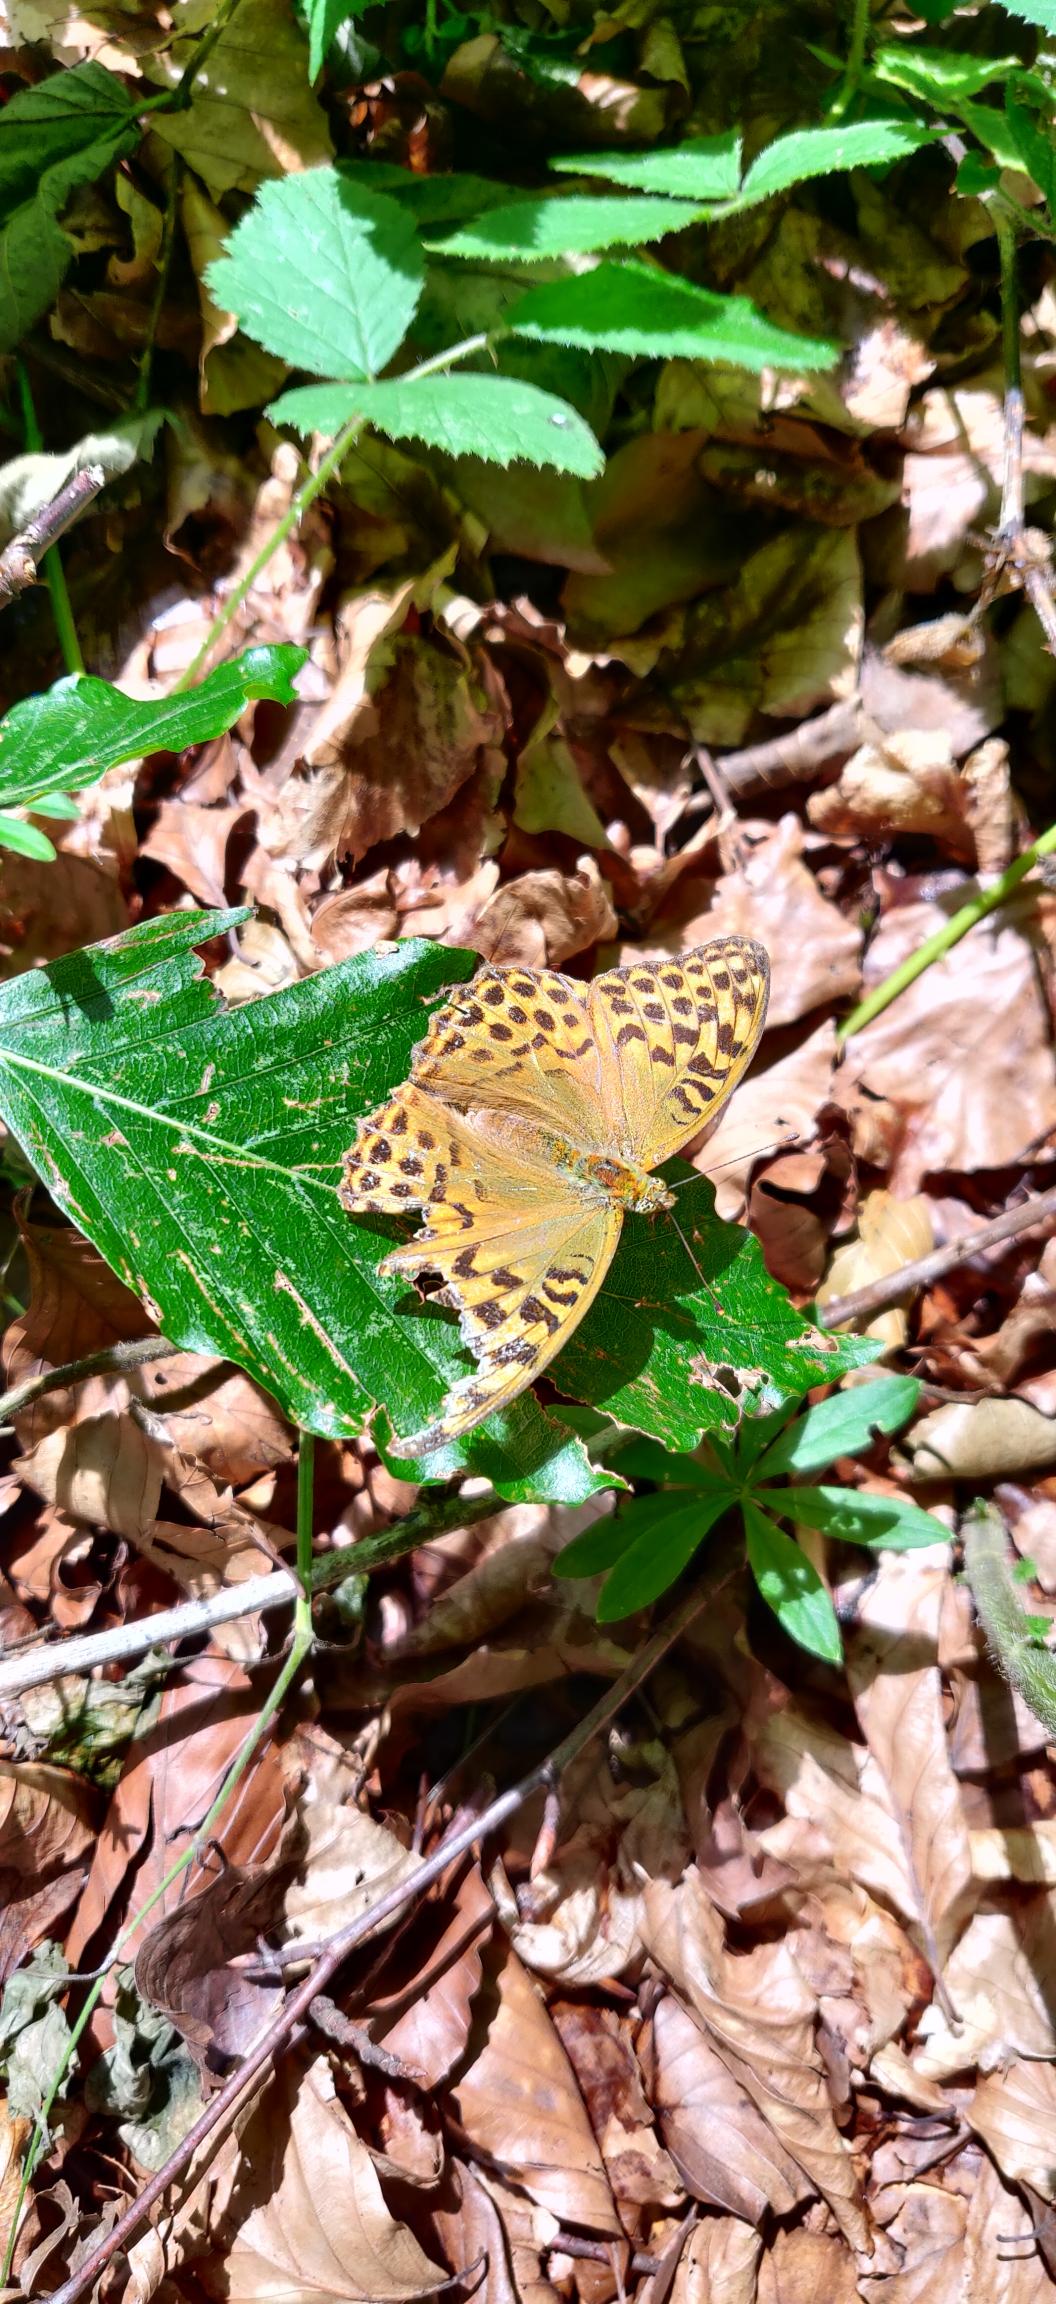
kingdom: Animalia
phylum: Arthropoda
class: Insecta
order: Lepidoptera
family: Nymphalidae
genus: Argynnis
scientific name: Argynnis paphia
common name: Kejserkåbe
